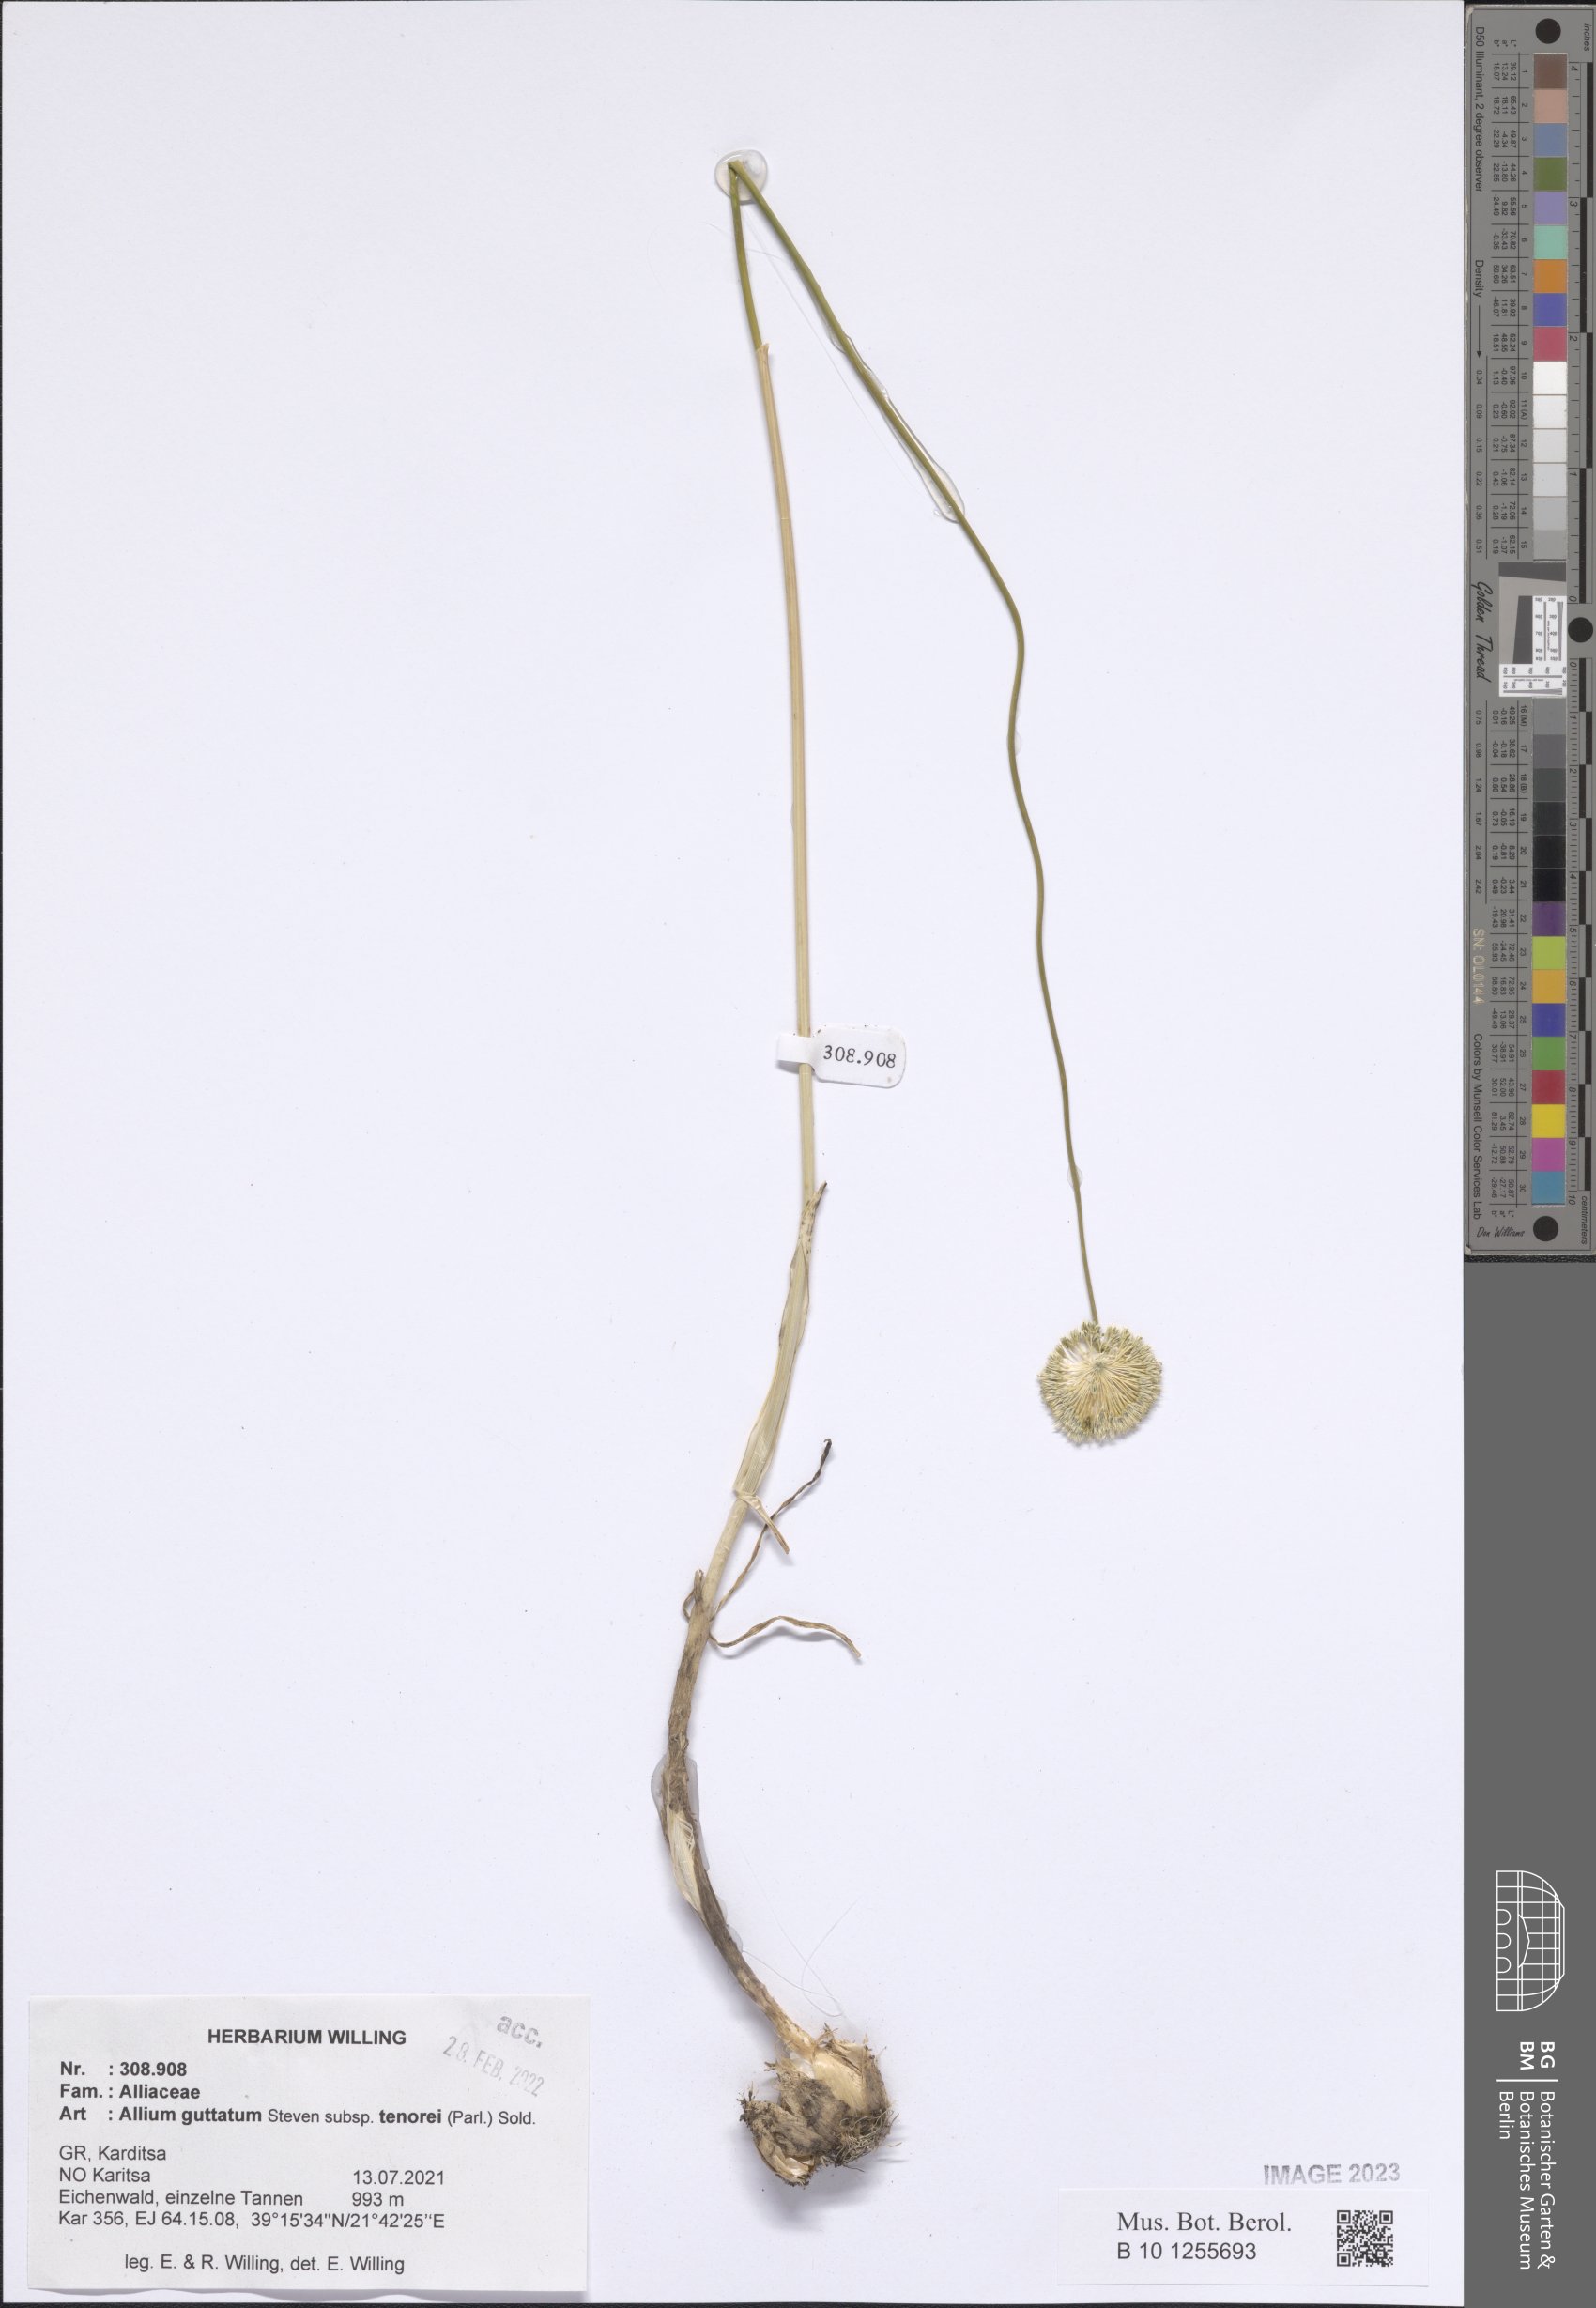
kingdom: Plantae
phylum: Tracheophyta
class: Liliopsida
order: Asparagales
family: Amaryllidaceae
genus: Allium
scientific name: Allium sardoum
